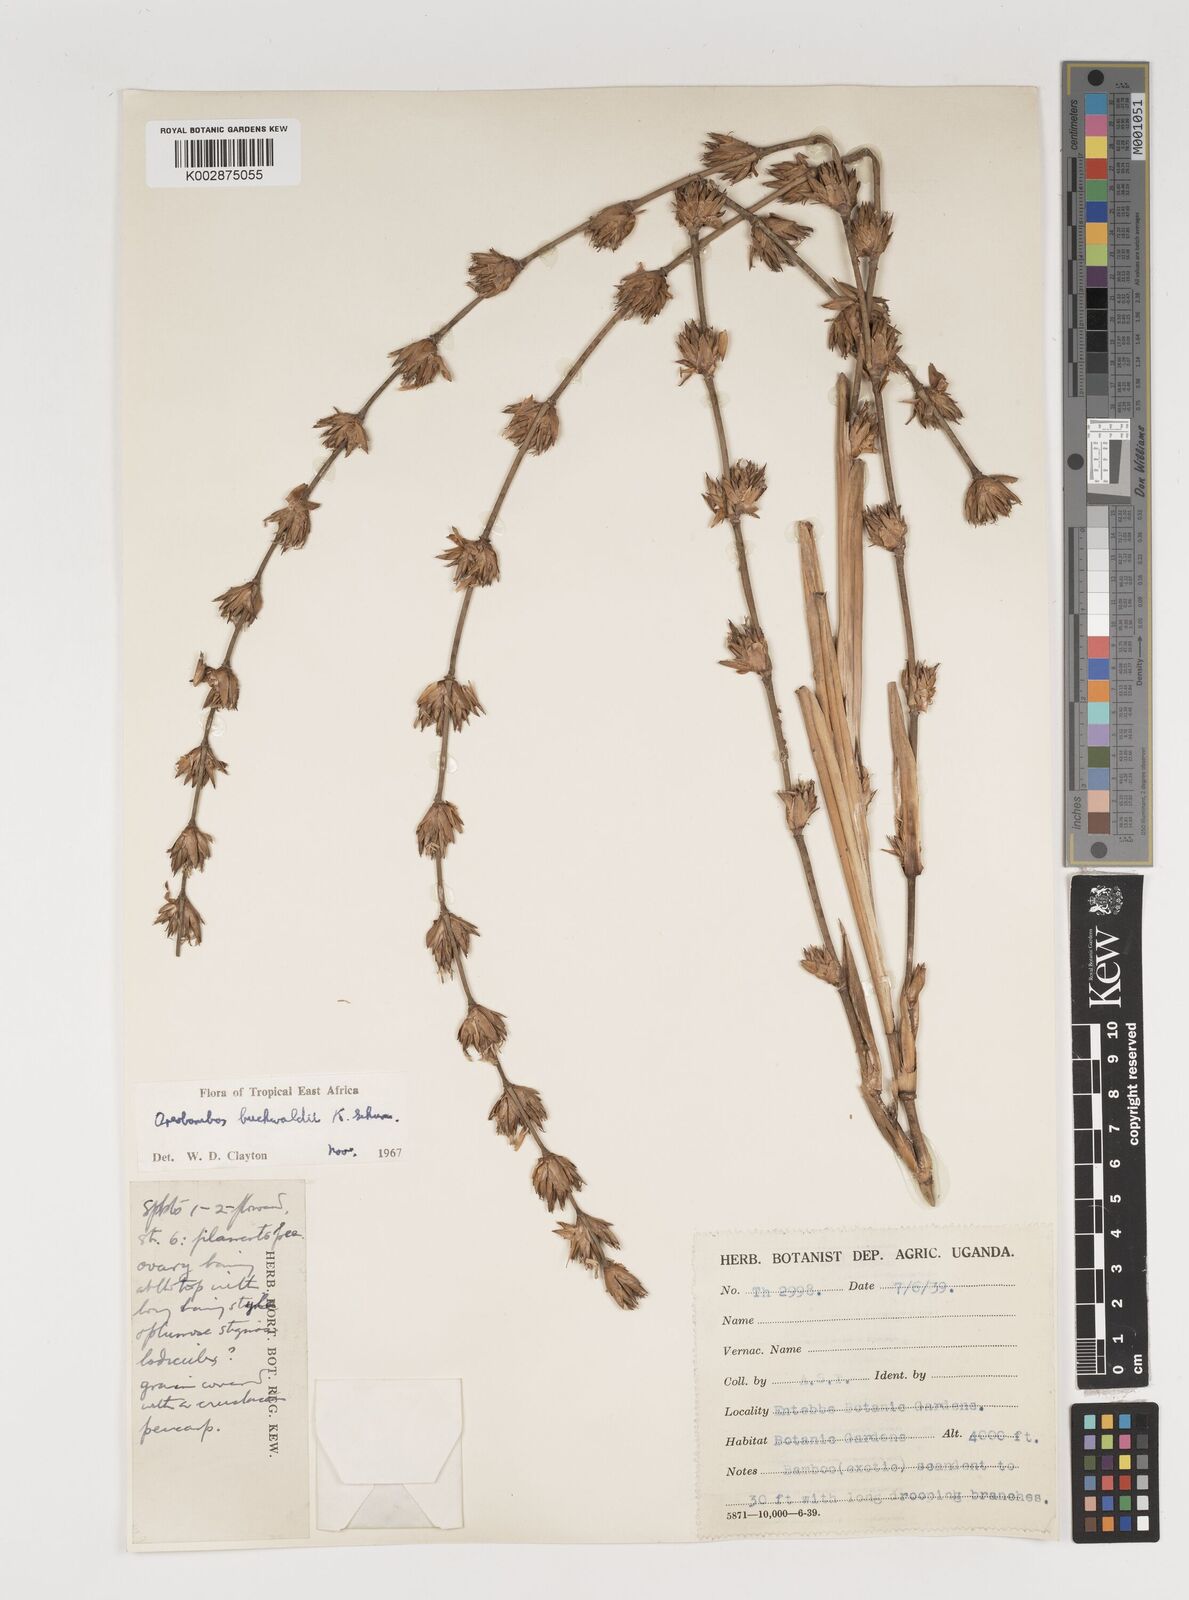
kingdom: Plantae
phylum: Tracheophyta
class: Liliopsida
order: Poales
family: Poaceae
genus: Oreobambos
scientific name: Oreobambos
